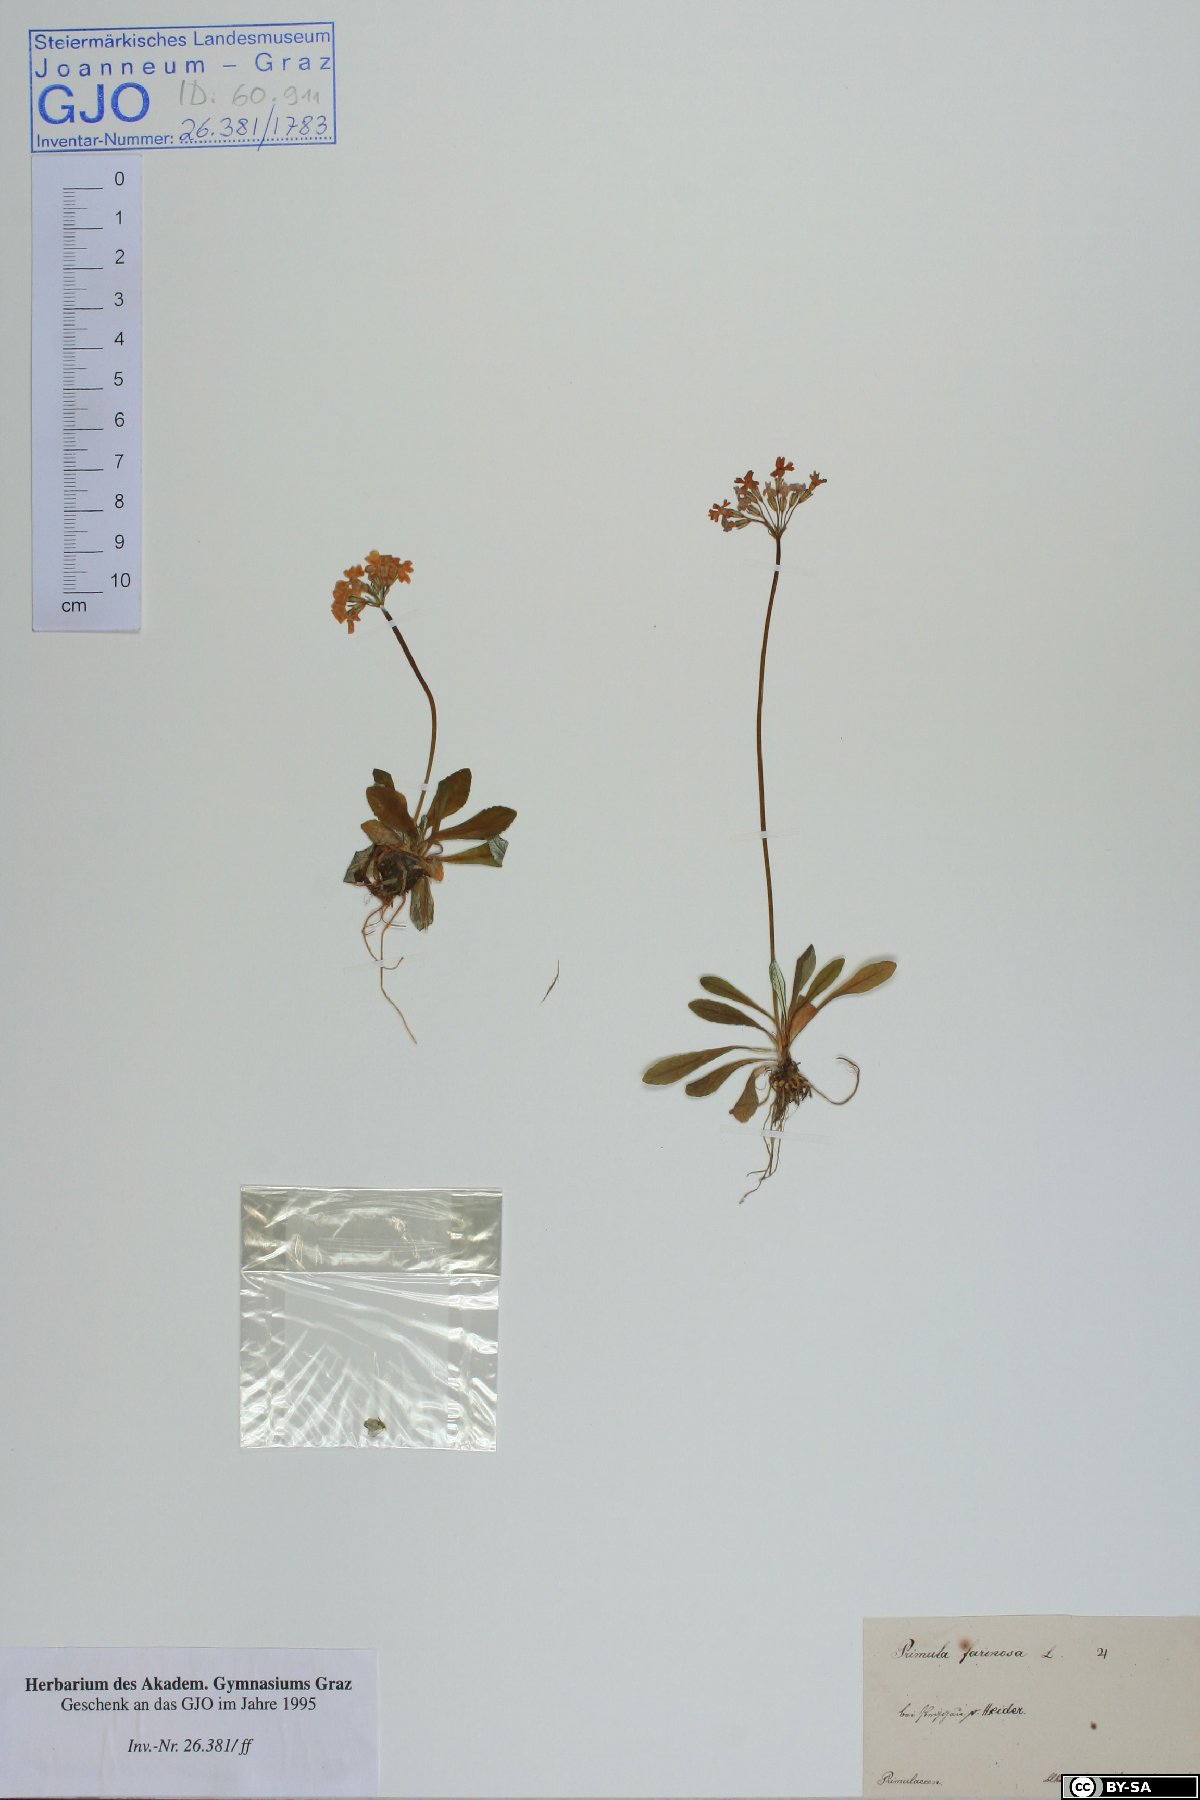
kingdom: Plantae
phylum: Tracheophyta
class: Magnoliopsida
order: Ericales
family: Primulaceae
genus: Primula
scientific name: Primula farinosa
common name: Bird's-eye primrose
